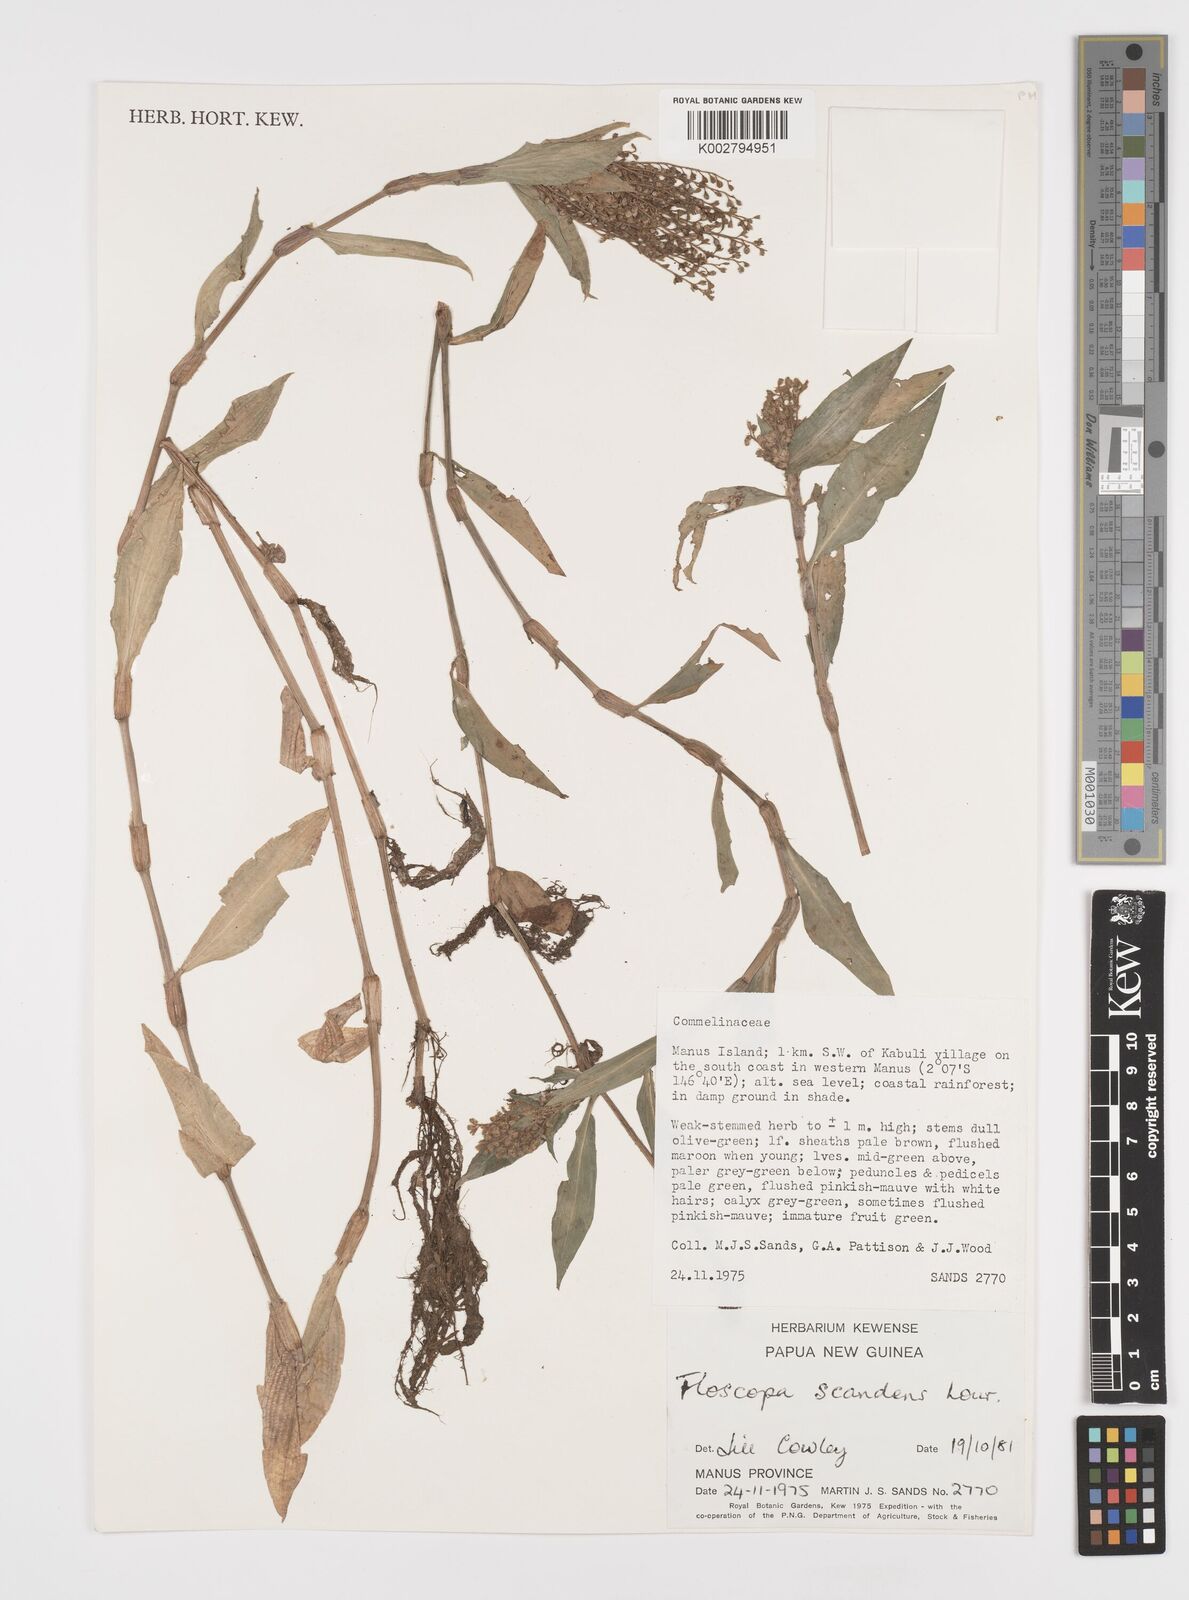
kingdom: Plantae
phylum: Tracheophyta
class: Liliopsida
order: Commelinales
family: Commelinaceae
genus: Floscopa
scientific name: Floscopa scandens
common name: Climbing flower cup
